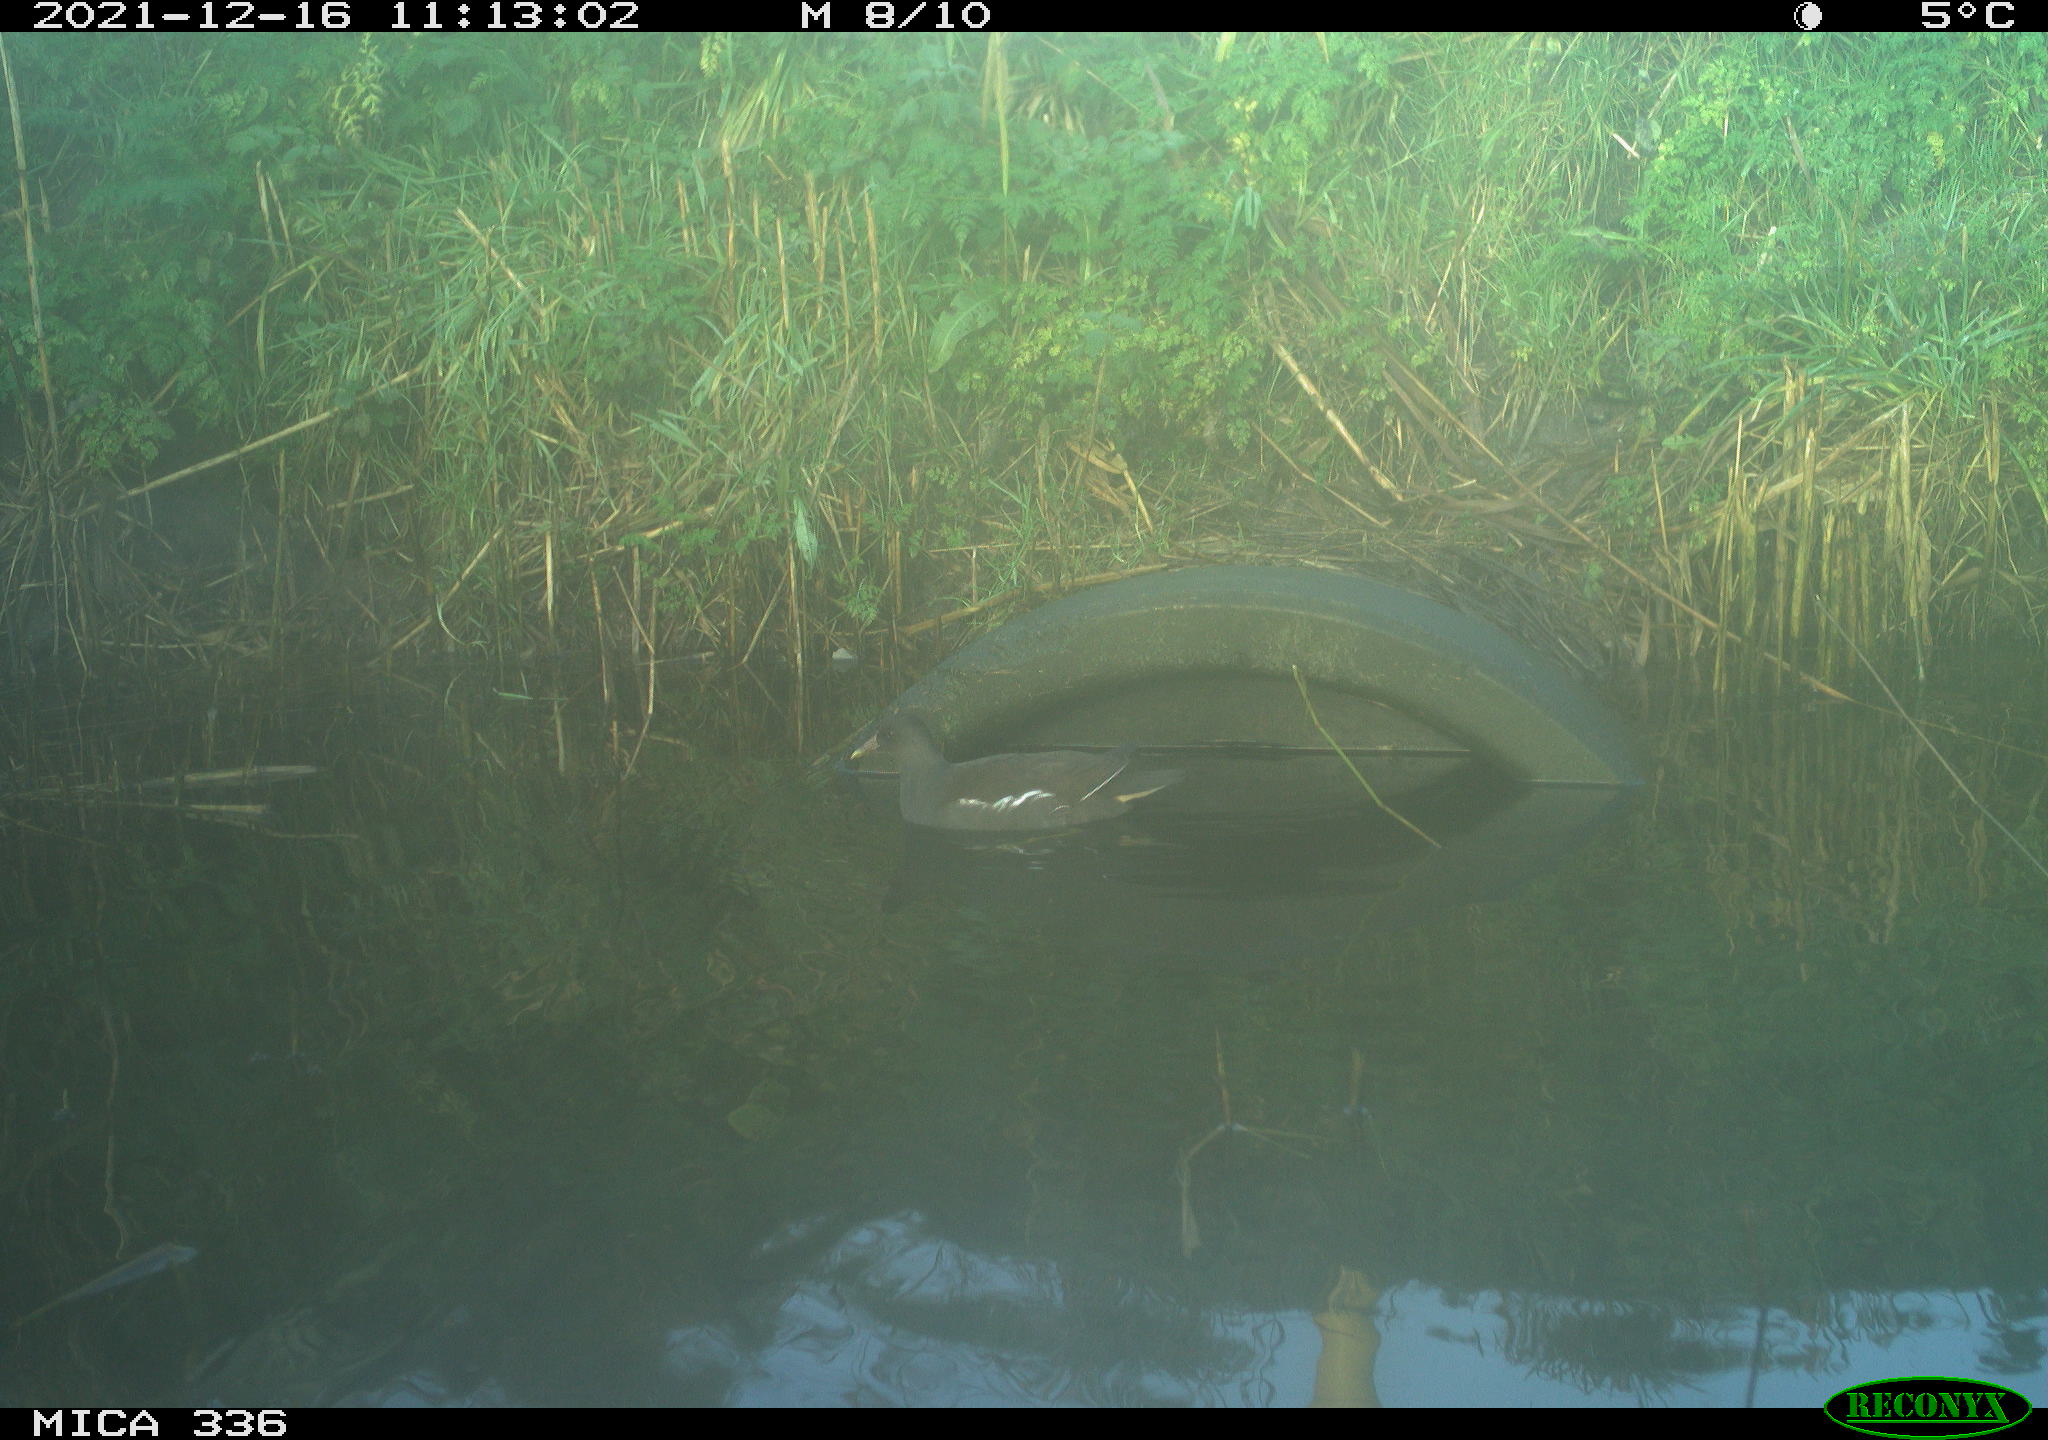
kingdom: Animalia
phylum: Chordata
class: Aves
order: Gruiformes
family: Rallidae
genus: Gallinula
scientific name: Gallinula chloropus
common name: Common moorhen
